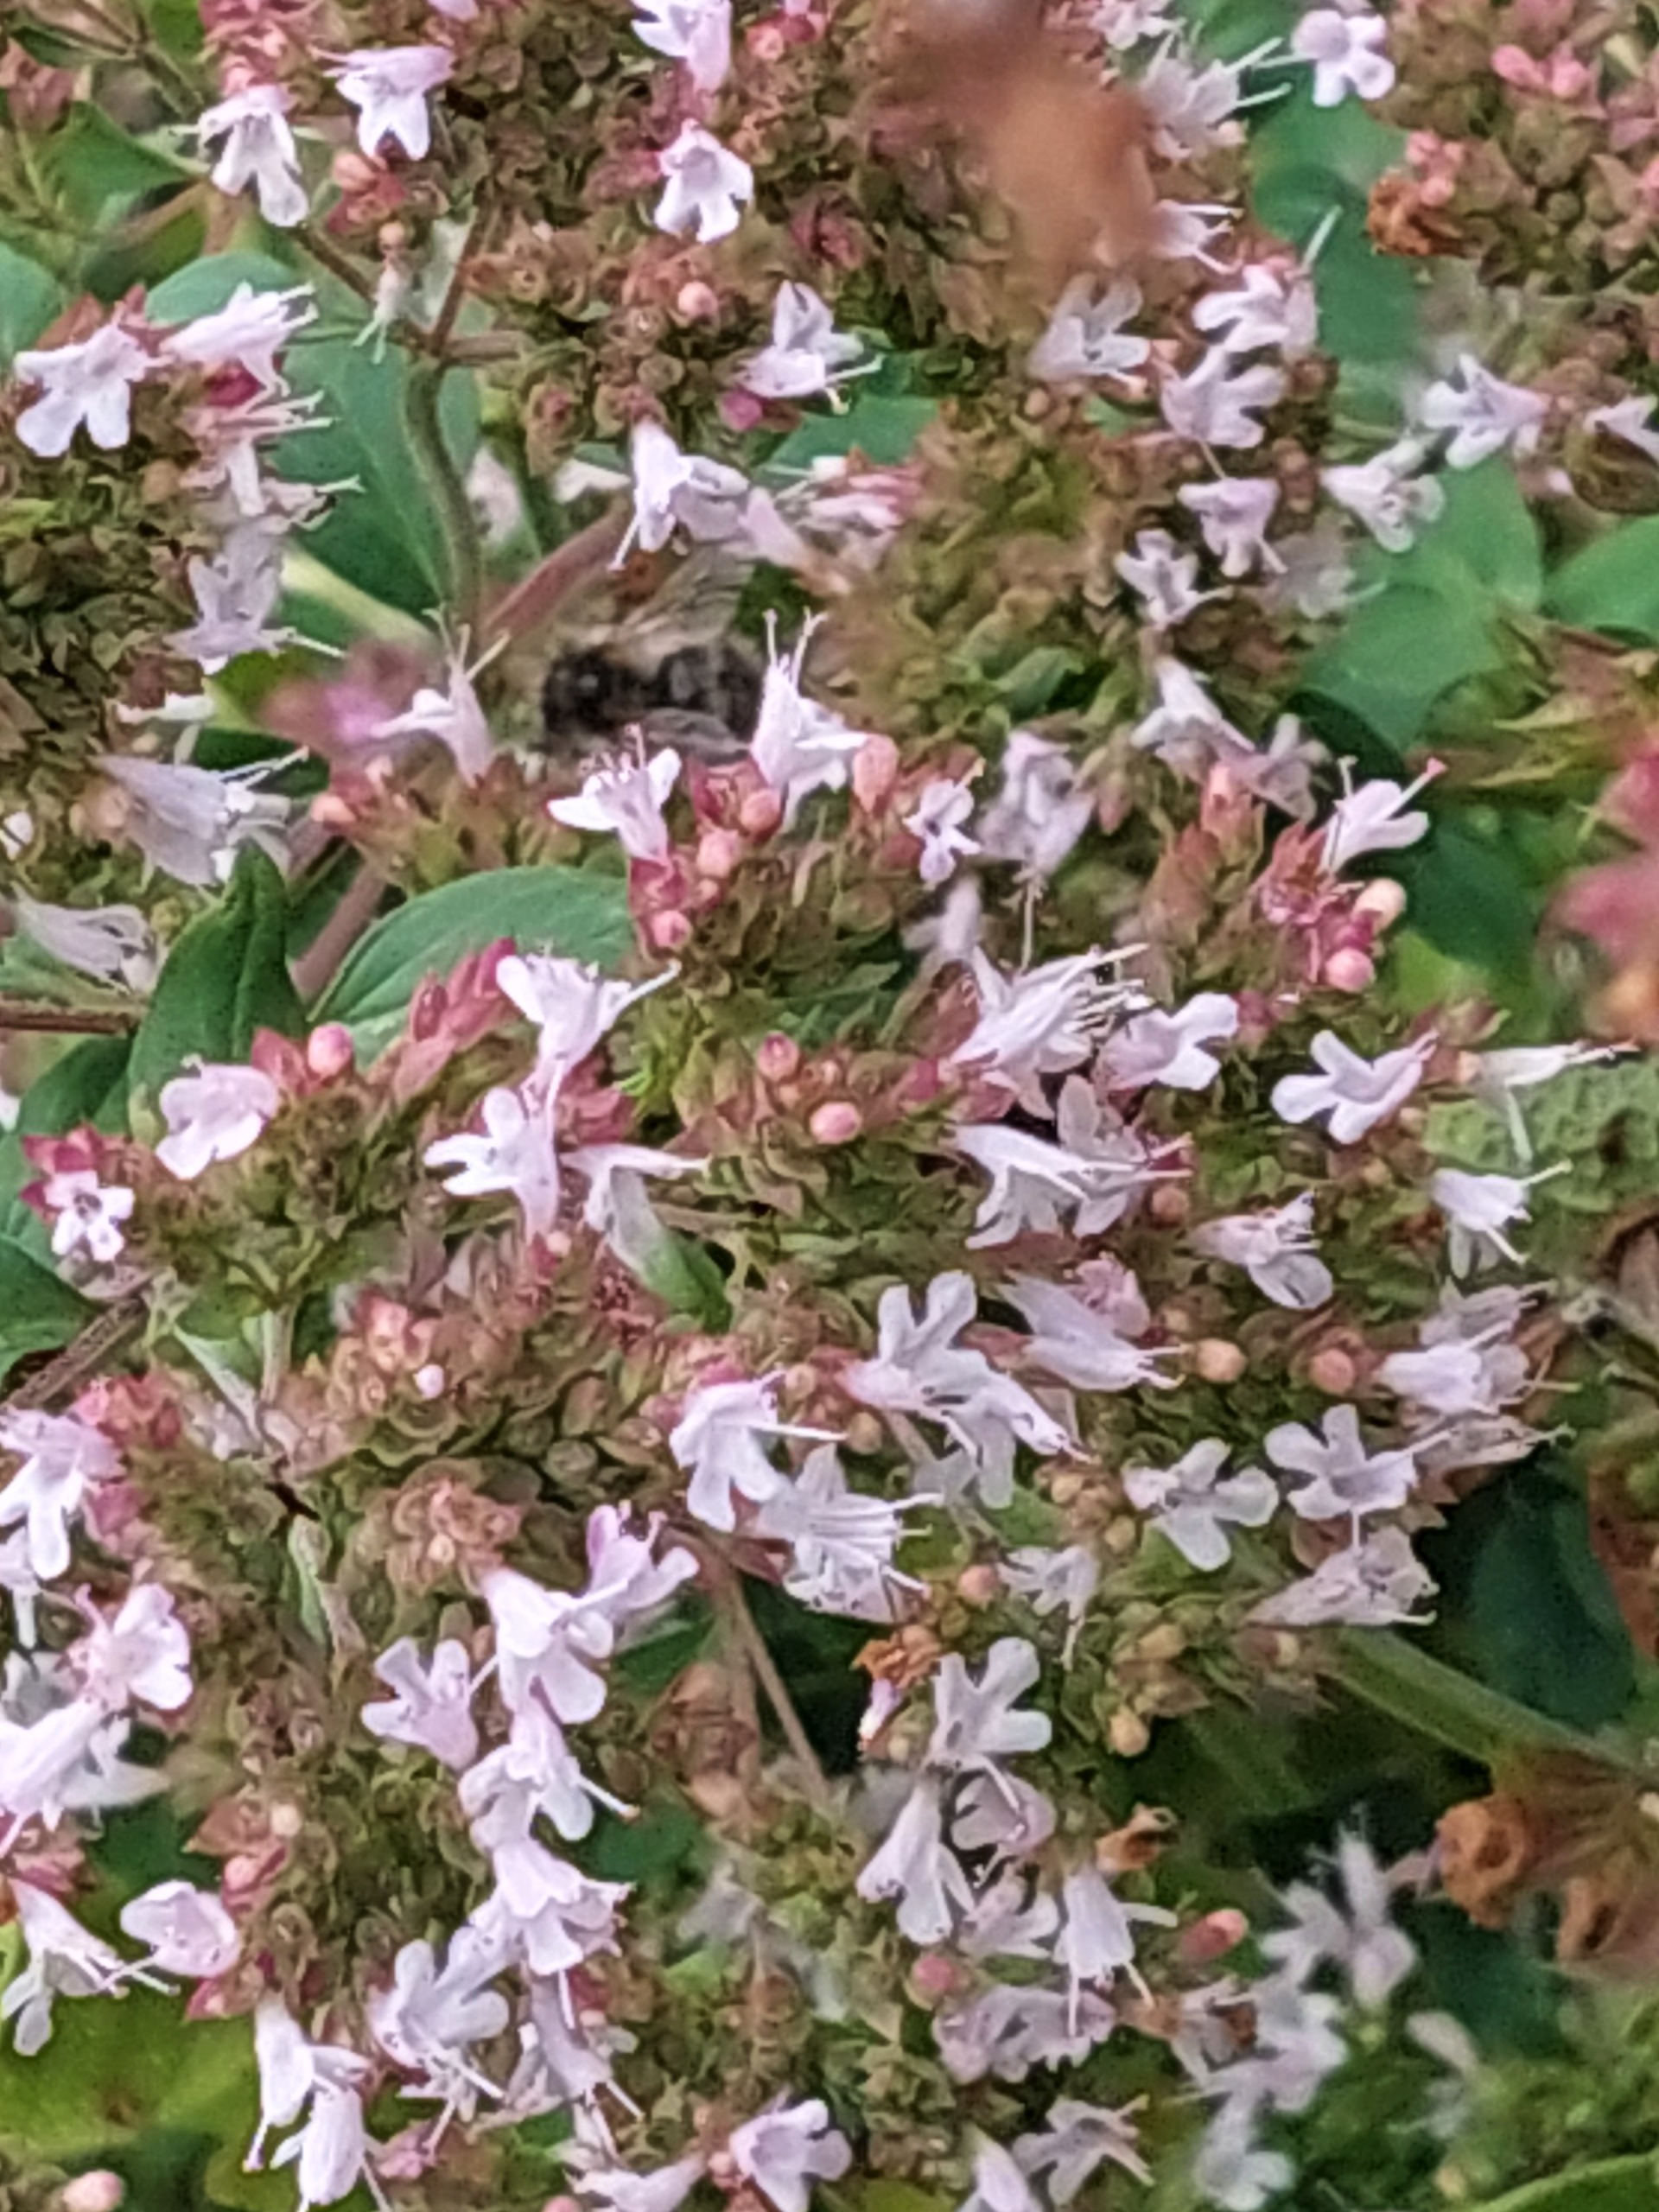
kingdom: Plantae
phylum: Tracheophyta
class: Magnoliopsida
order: Lamiales
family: Lamiaceae
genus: Origanum
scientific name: Origanum vulgare
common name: Merian
